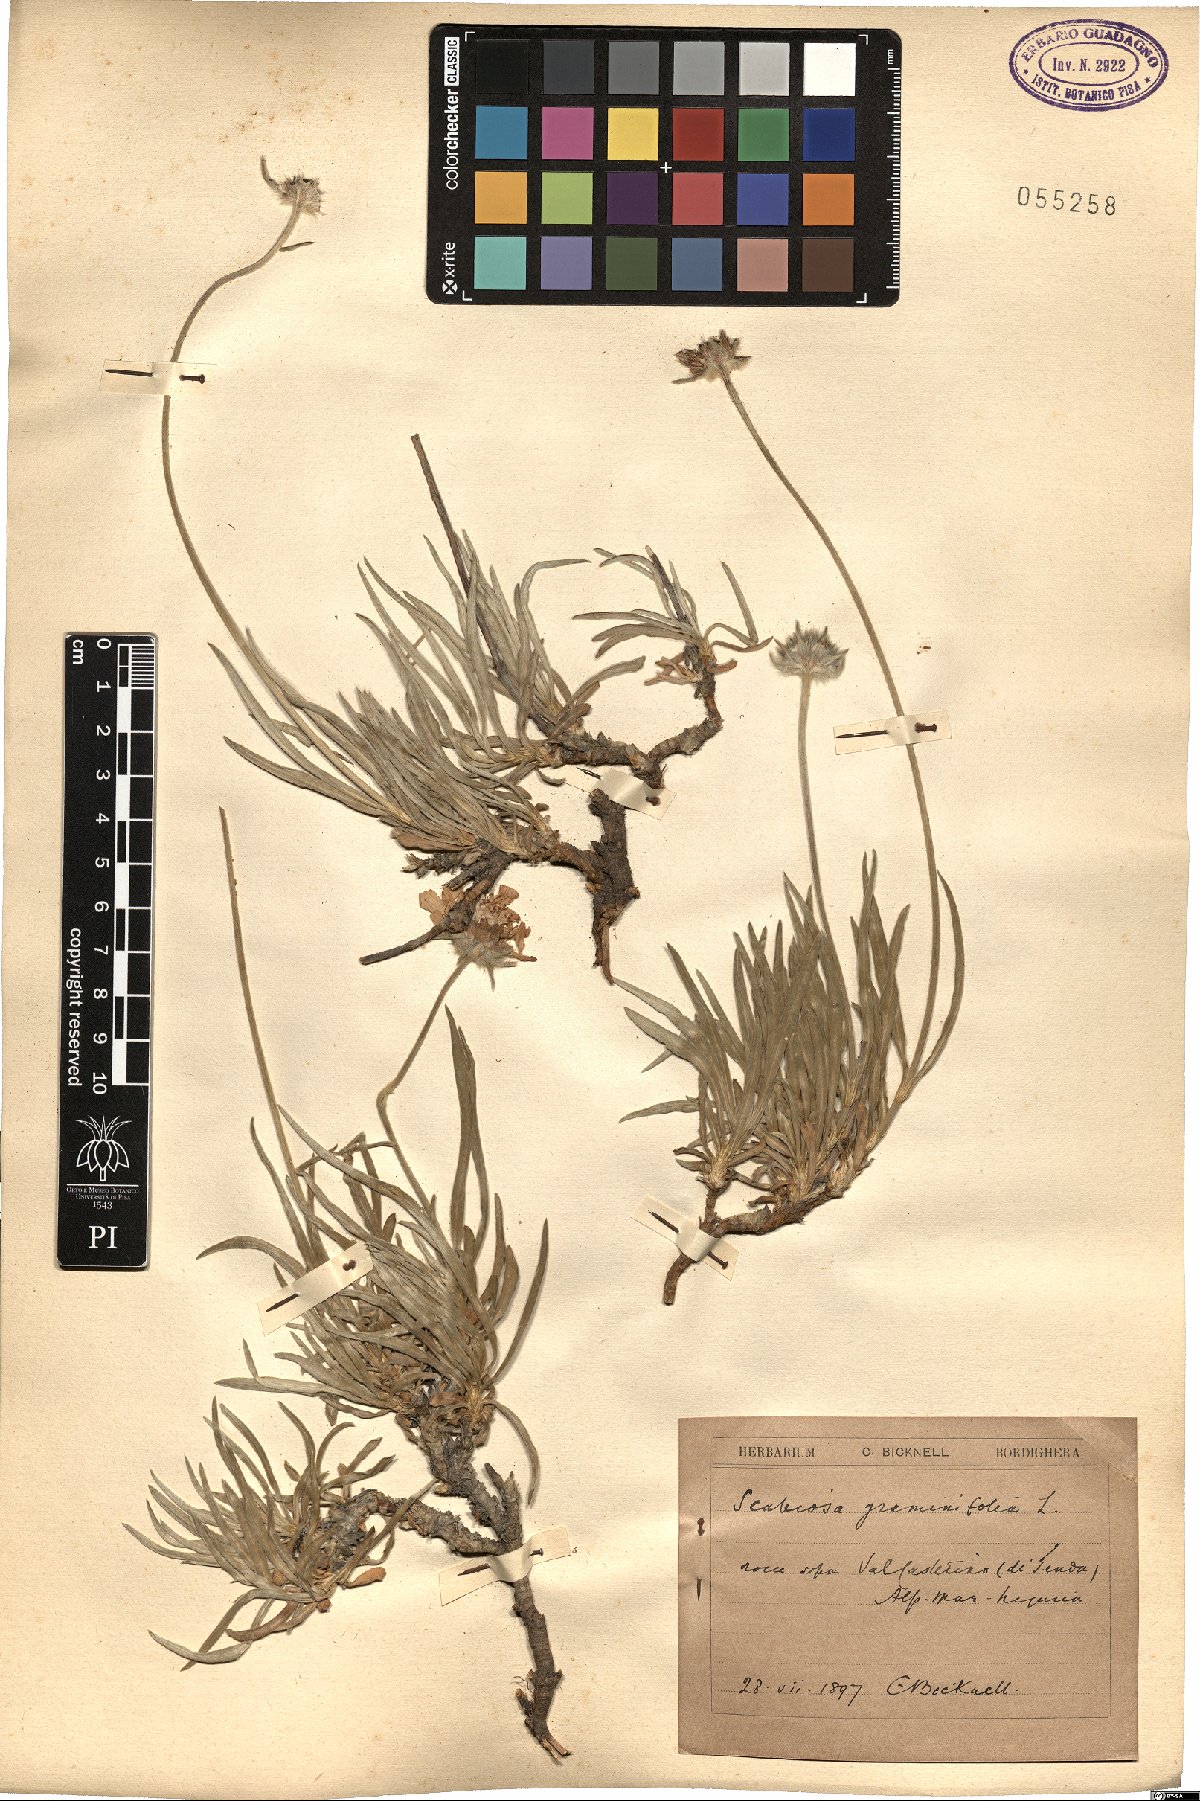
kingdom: Plantae
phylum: Tracheophyta
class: Magnoliopsida
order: Dipsacales
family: Caprifoliaceae
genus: Lomelosia
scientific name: Lomelosia graminifolia
